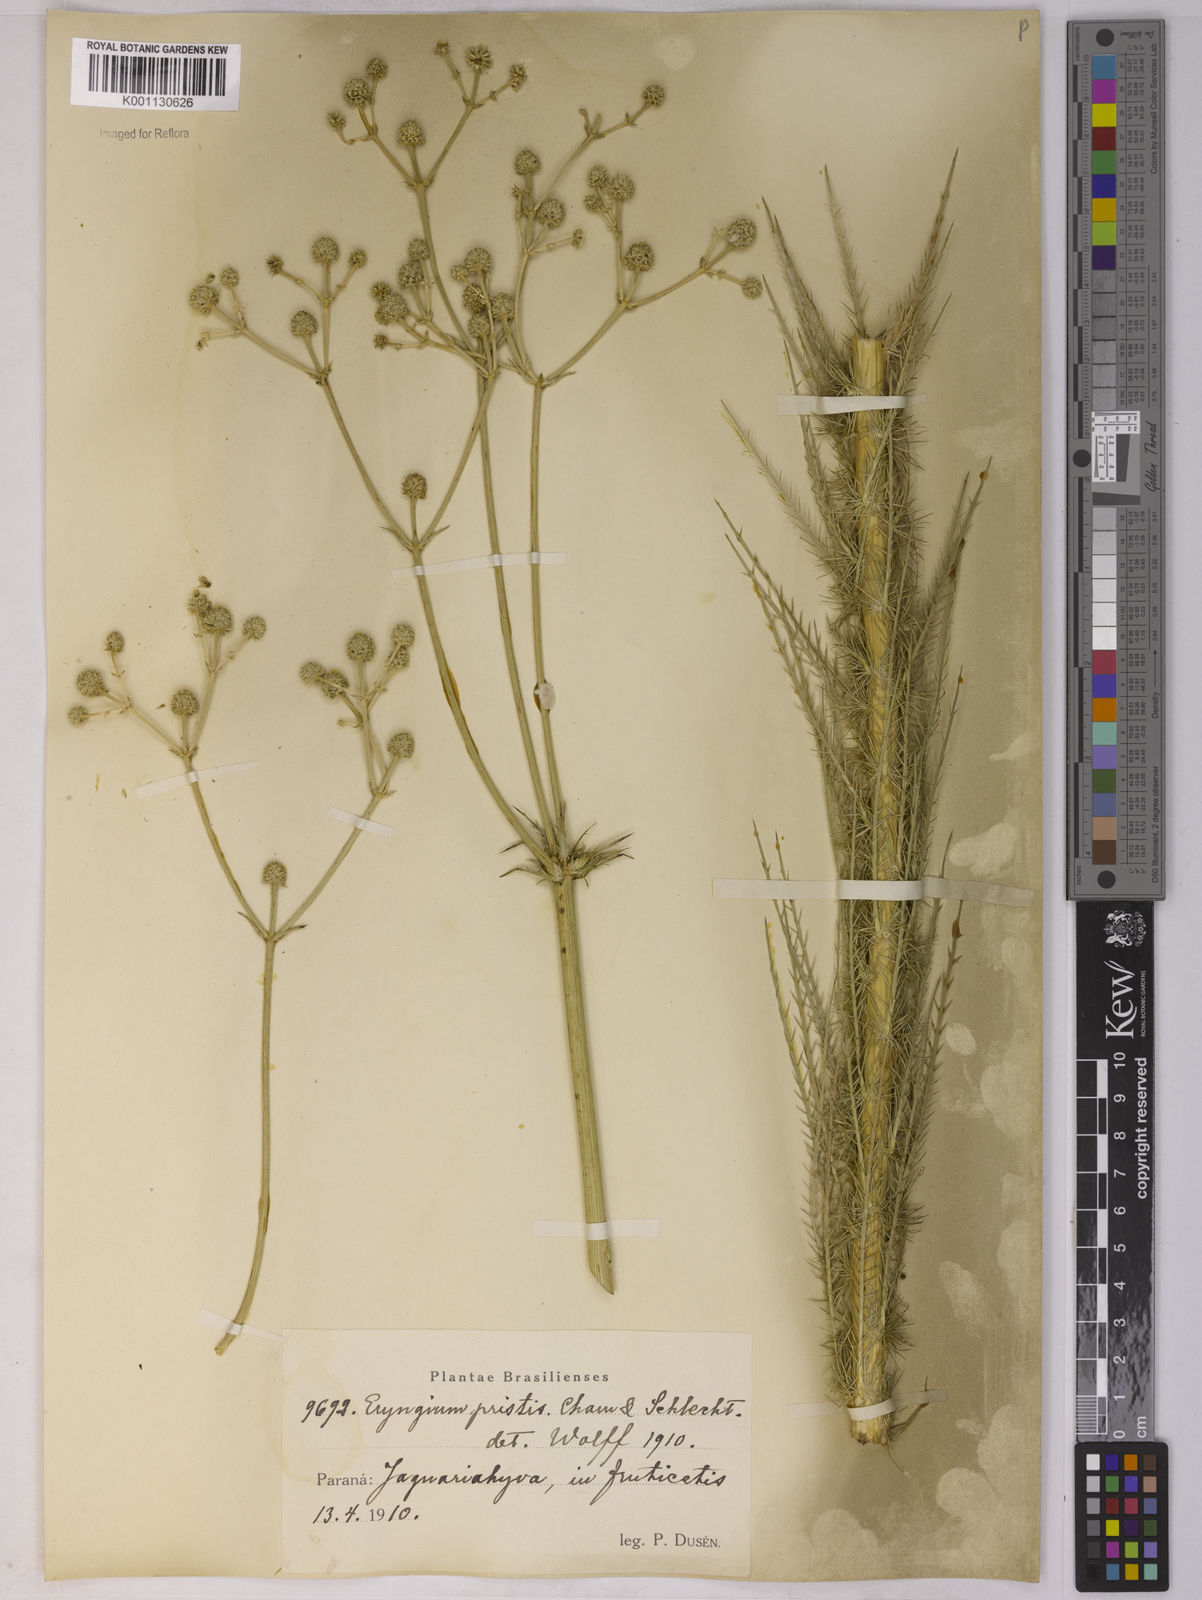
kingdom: Plantae
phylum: Tracheophyta
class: Magnoliopsida
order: Apiales
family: Apiaceae
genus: Eryngium
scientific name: Eryngium pristis
